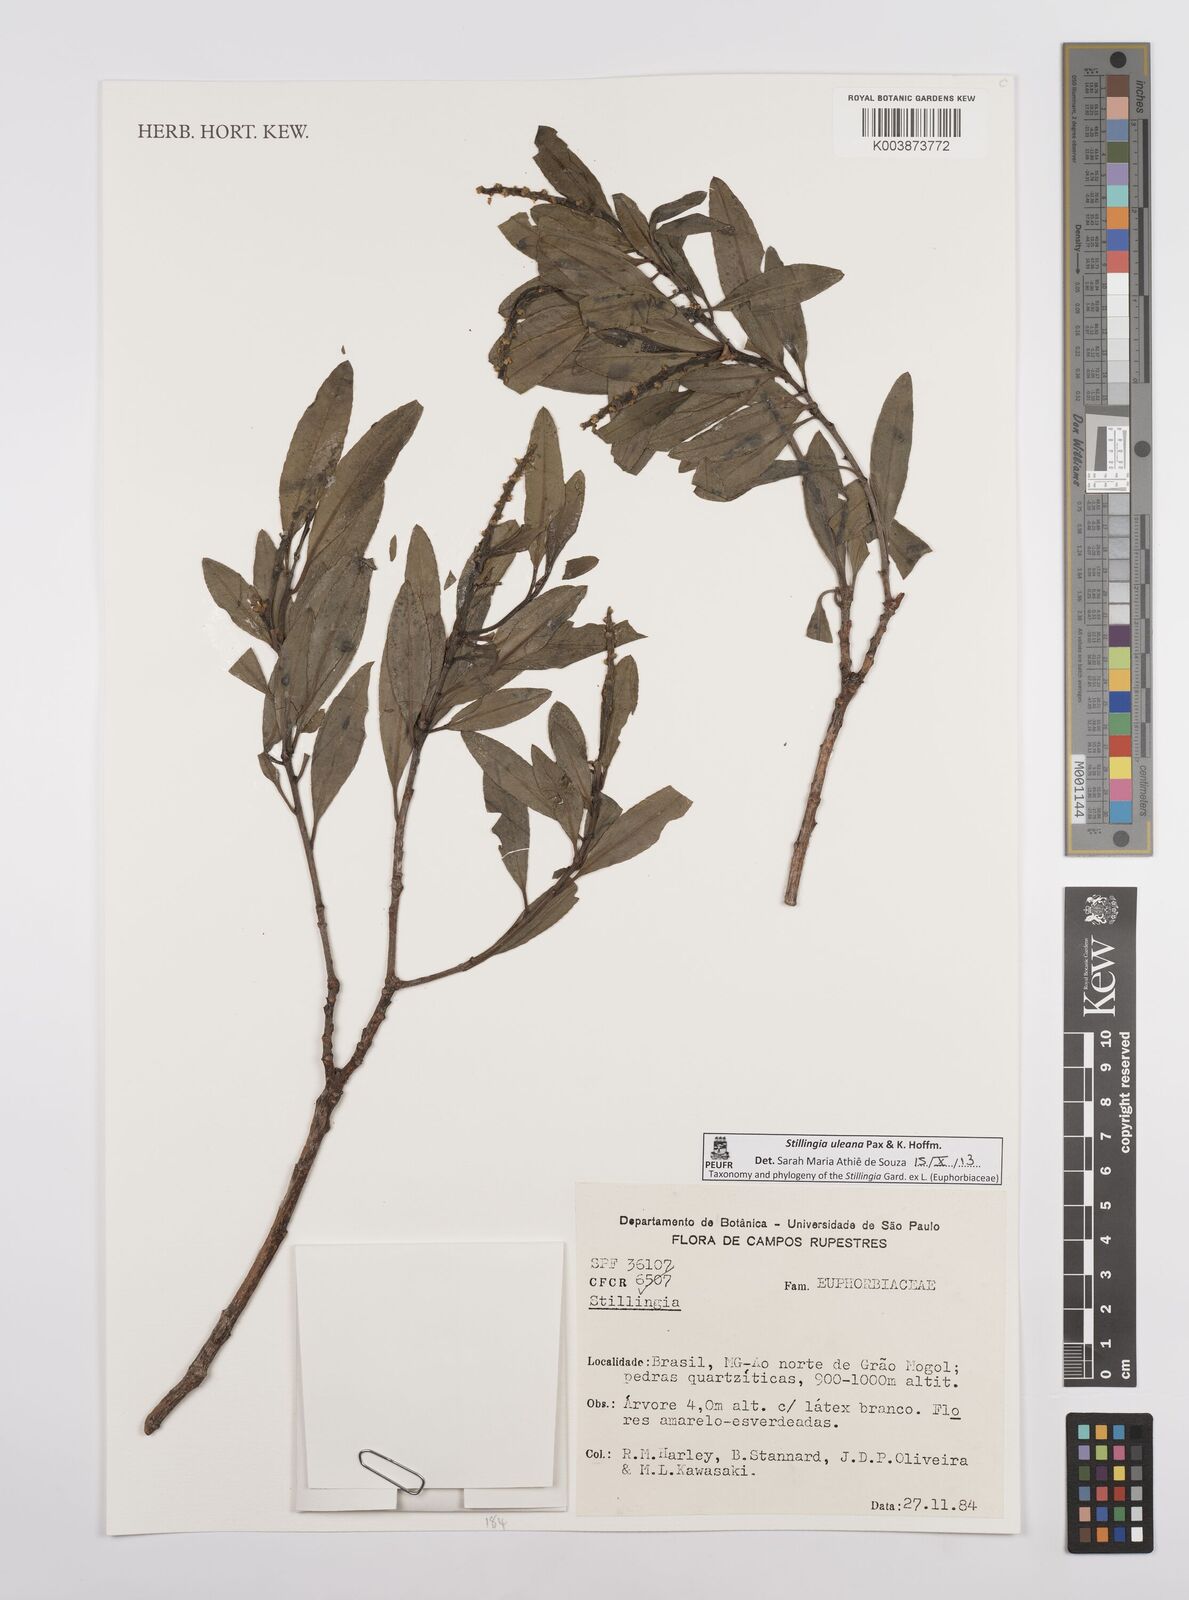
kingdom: Plantae
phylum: Tracheophyta
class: Magnoliopsida
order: Malpighiales
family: Euphorbiaceae
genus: Stillingia
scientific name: Stillingia uleana
